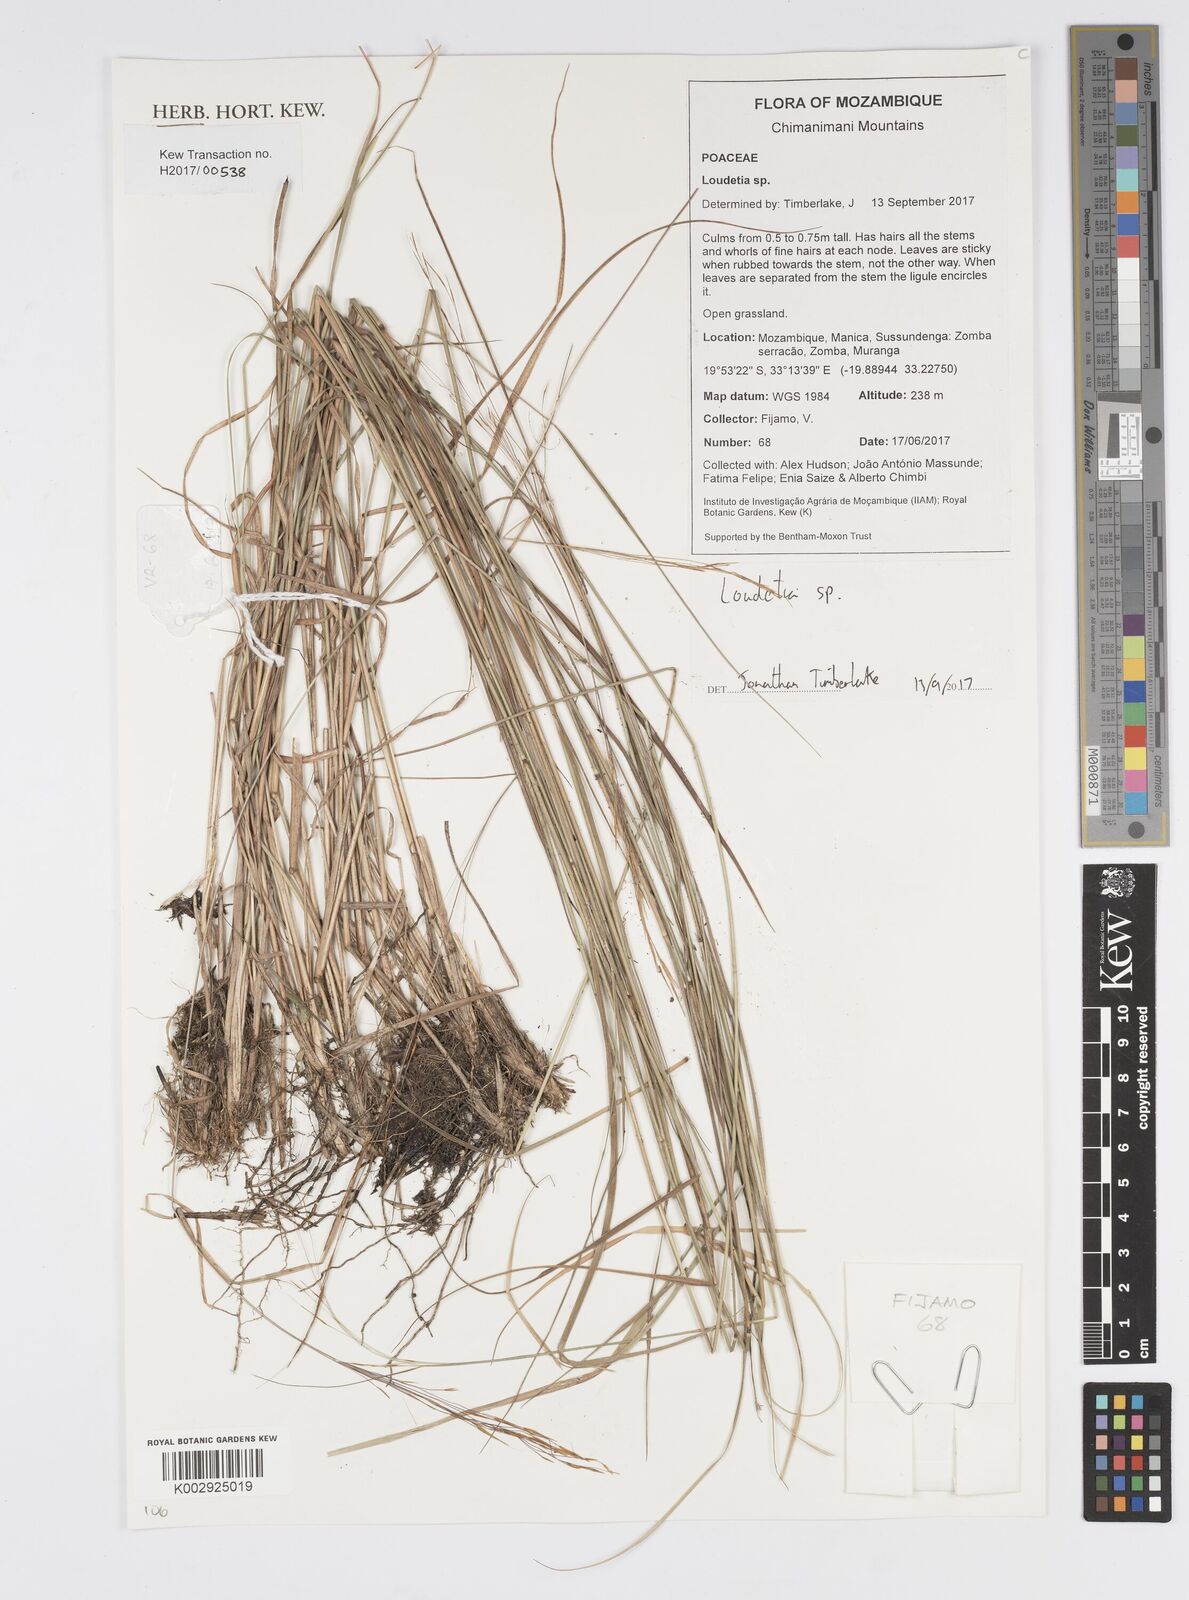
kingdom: Plantae
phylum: Tracheophyta
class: Liliopsida
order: Poales
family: Poaceae
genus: Loudetia
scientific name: Loudetia
